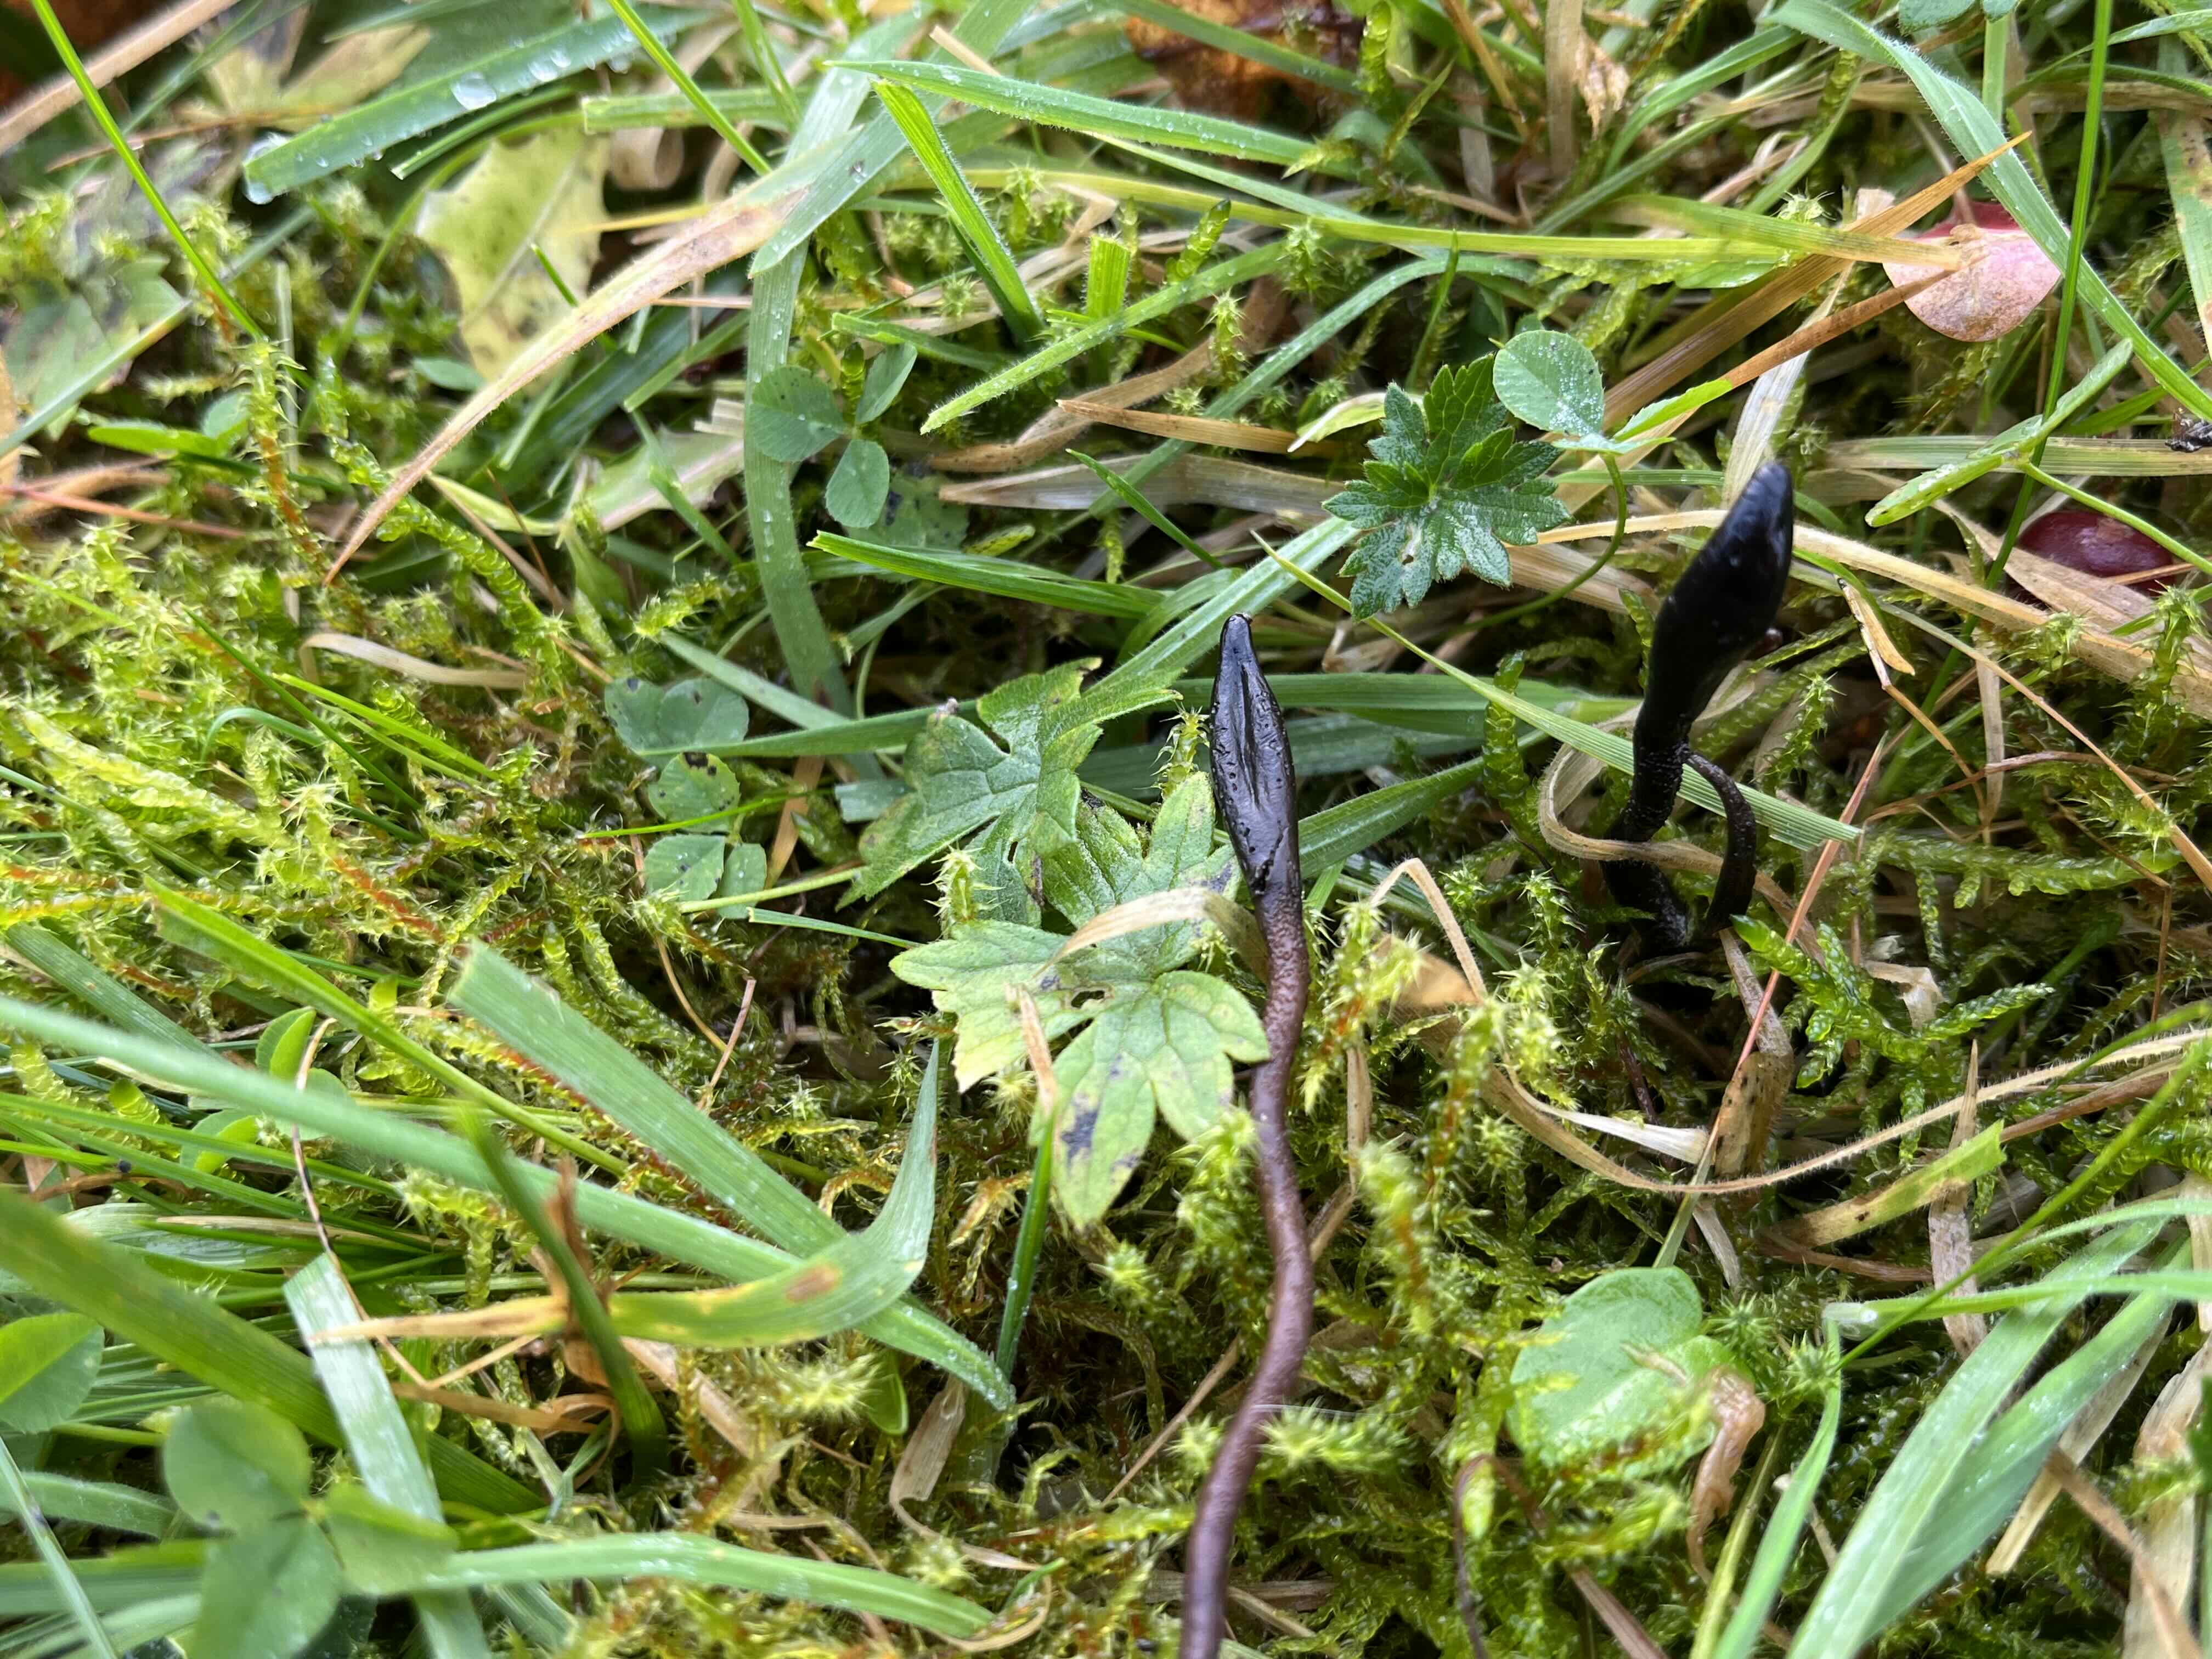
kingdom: Fungi
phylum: Ascomycota
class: Geoglossomycetes
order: Geoglossales
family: Geoglossaceae
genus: Geoglossum
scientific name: Geoglossum
